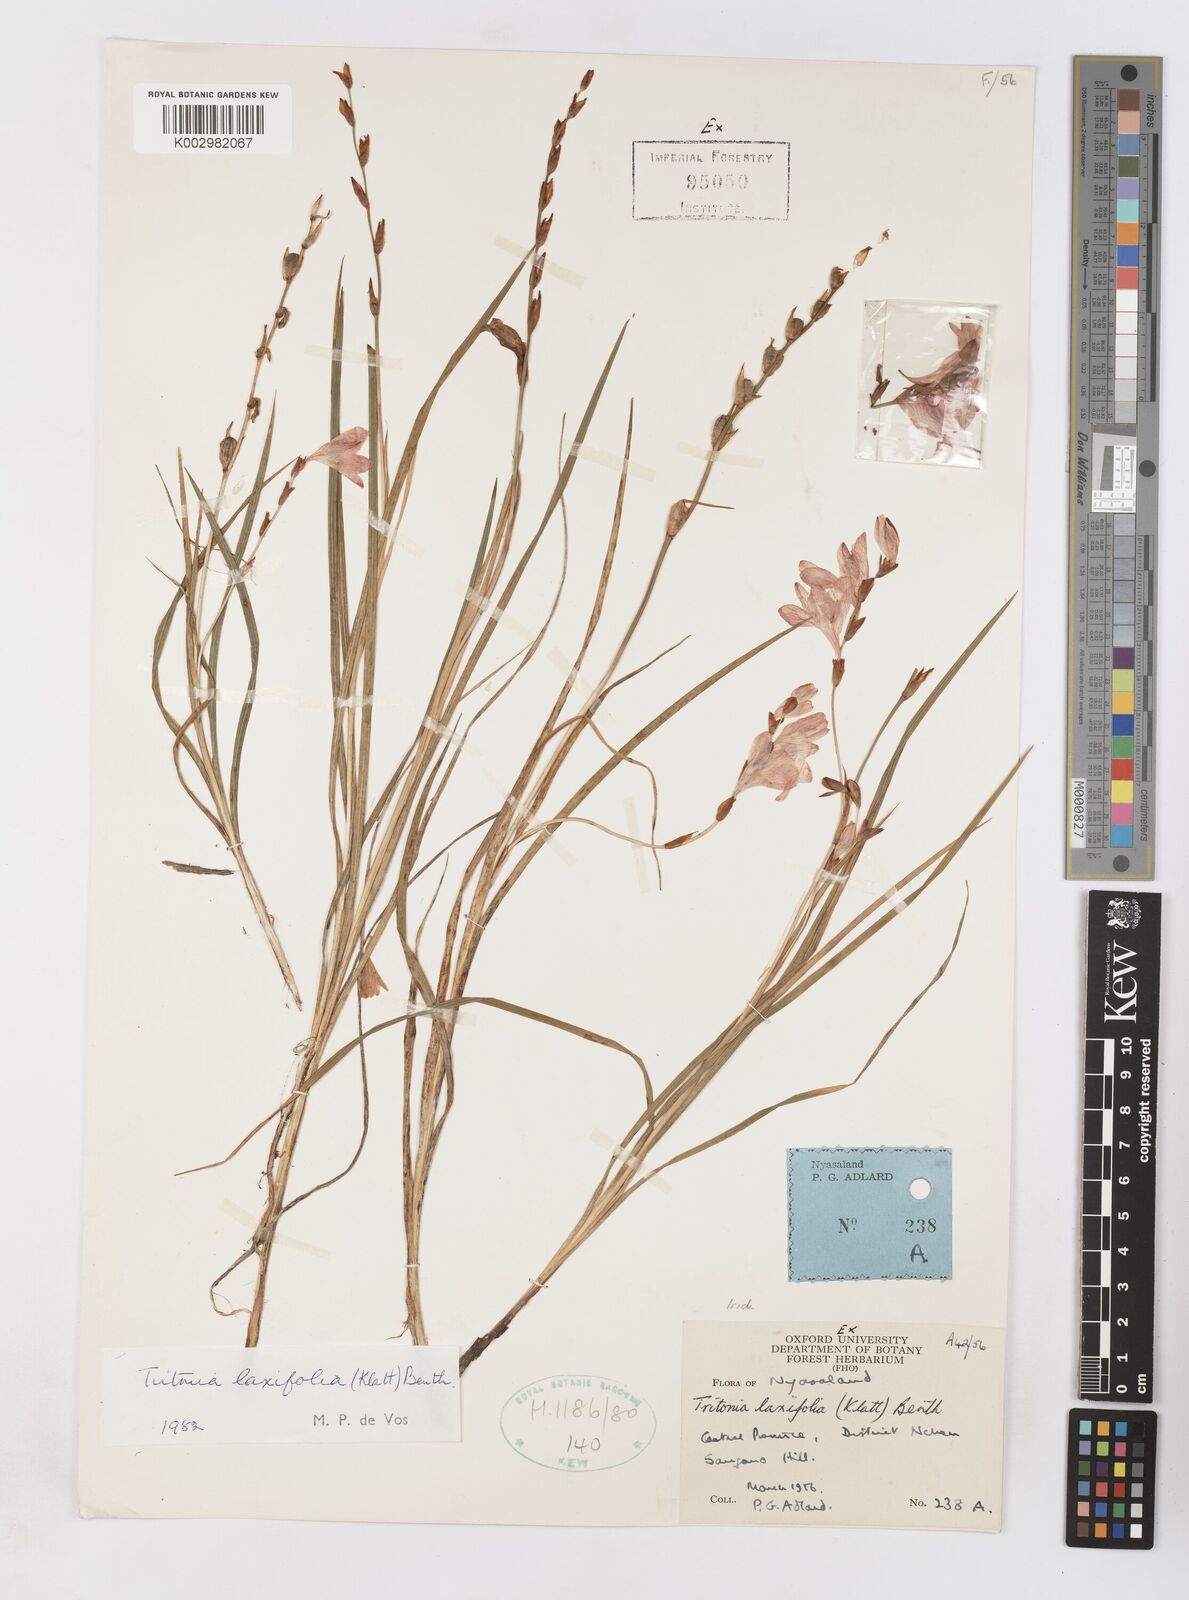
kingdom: Plantae
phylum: Tracheophyta
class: Liliopsida
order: Asparagales
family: Iridaceae
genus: Tritonia
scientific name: Tritonia laxifolia
